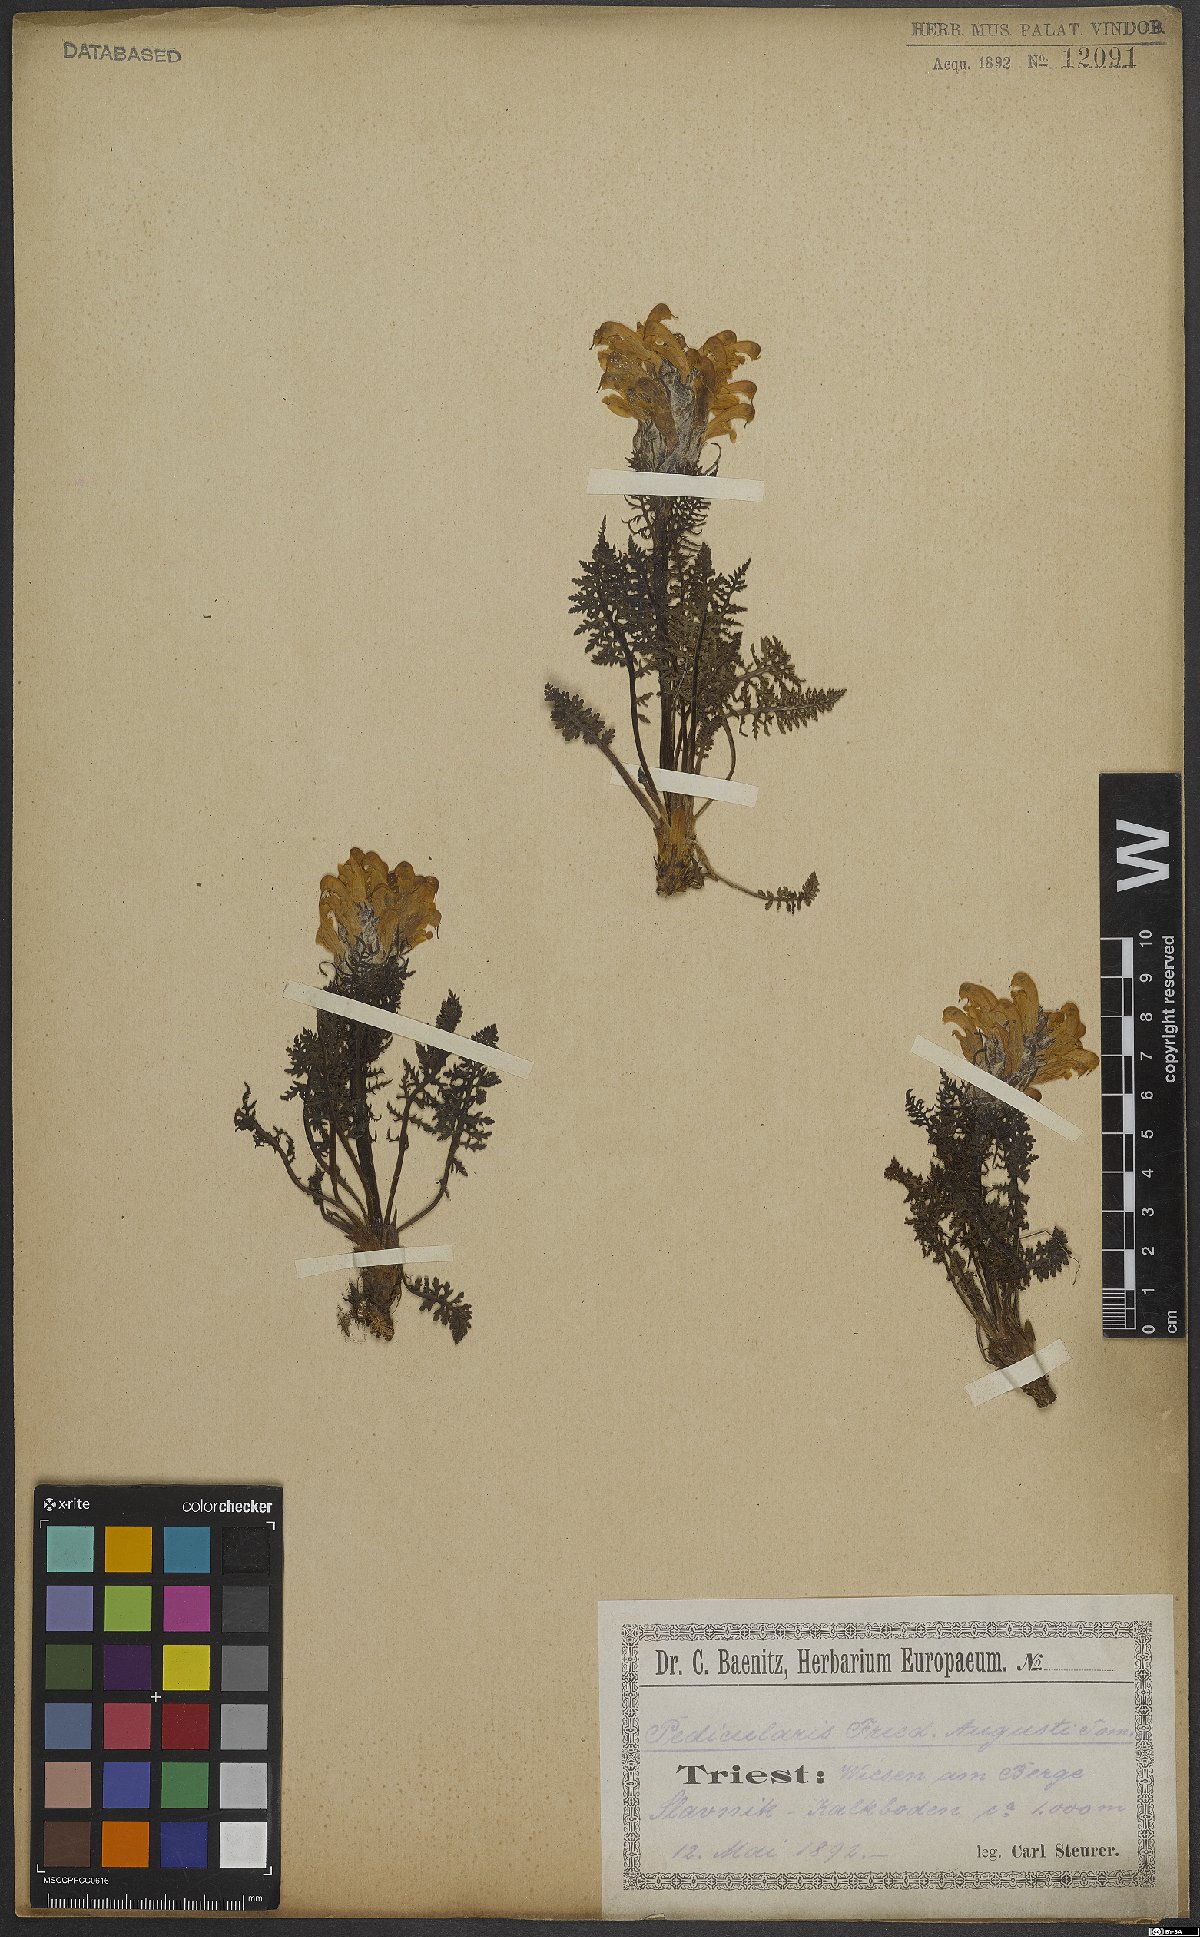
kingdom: Plantae
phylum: Tracheophyta
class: Magnoliopsida
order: Lamiales
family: Orobanchaceae
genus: Pedicularis
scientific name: Pedicularis friderici-augusti
